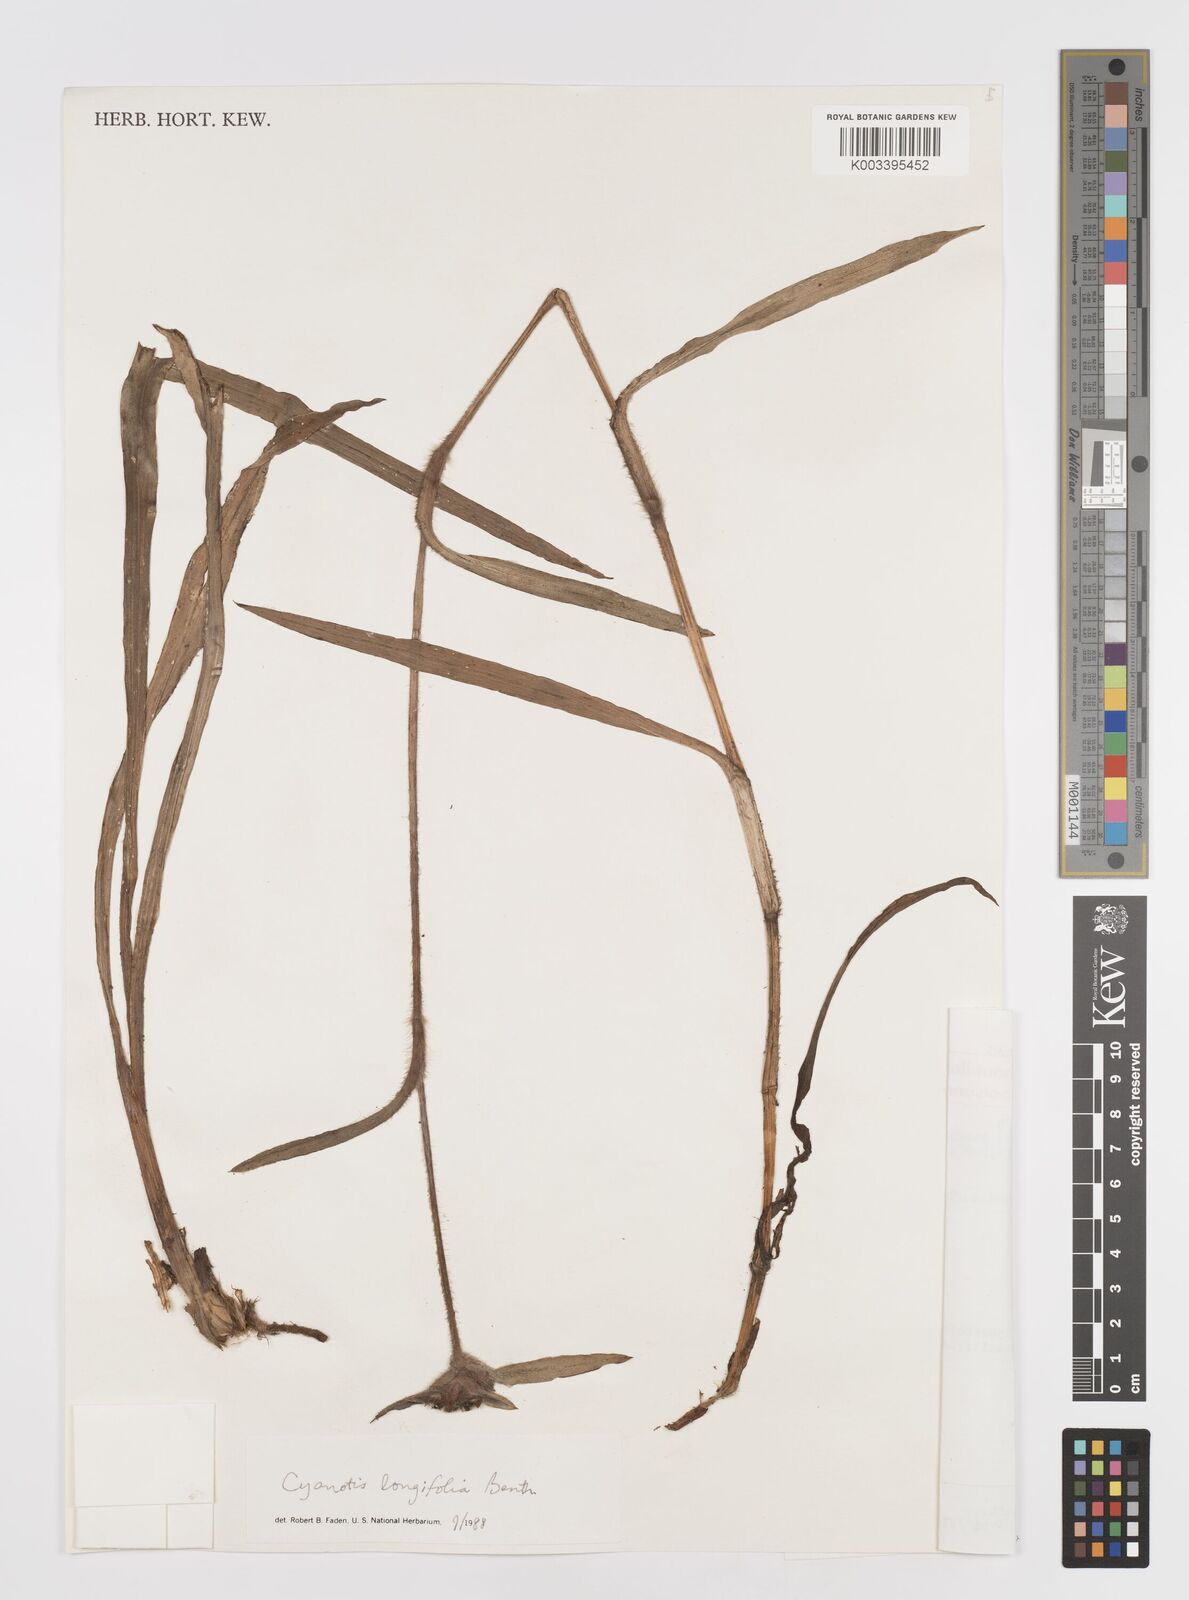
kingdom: Plantae
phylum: Tracheophyta
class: Liliopsida
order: Commelinales
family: Commelinaceae
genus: Cyanotis
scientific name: Cyanotis longifolia
